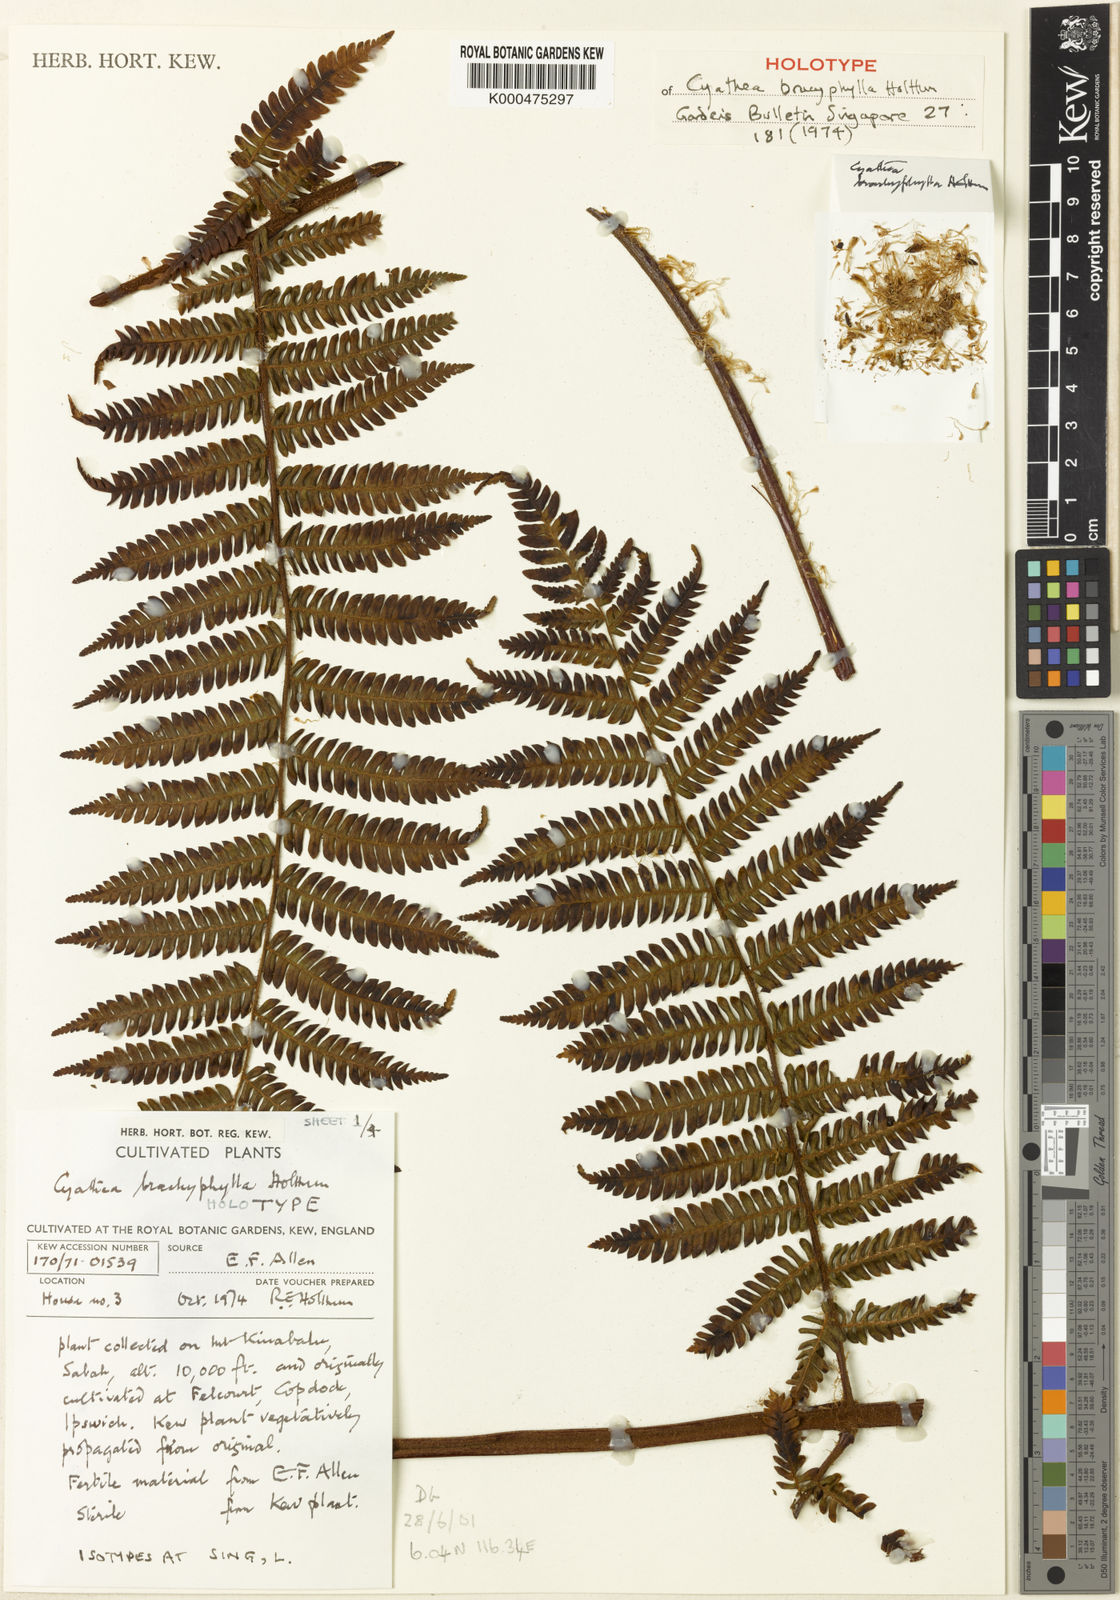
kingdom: Plantae
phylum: Tracheophyta
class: Polypodiopsida
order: Cyatheales
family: Cyatheaceae
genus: Alsophila
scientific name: Alsophila brachyphylla
